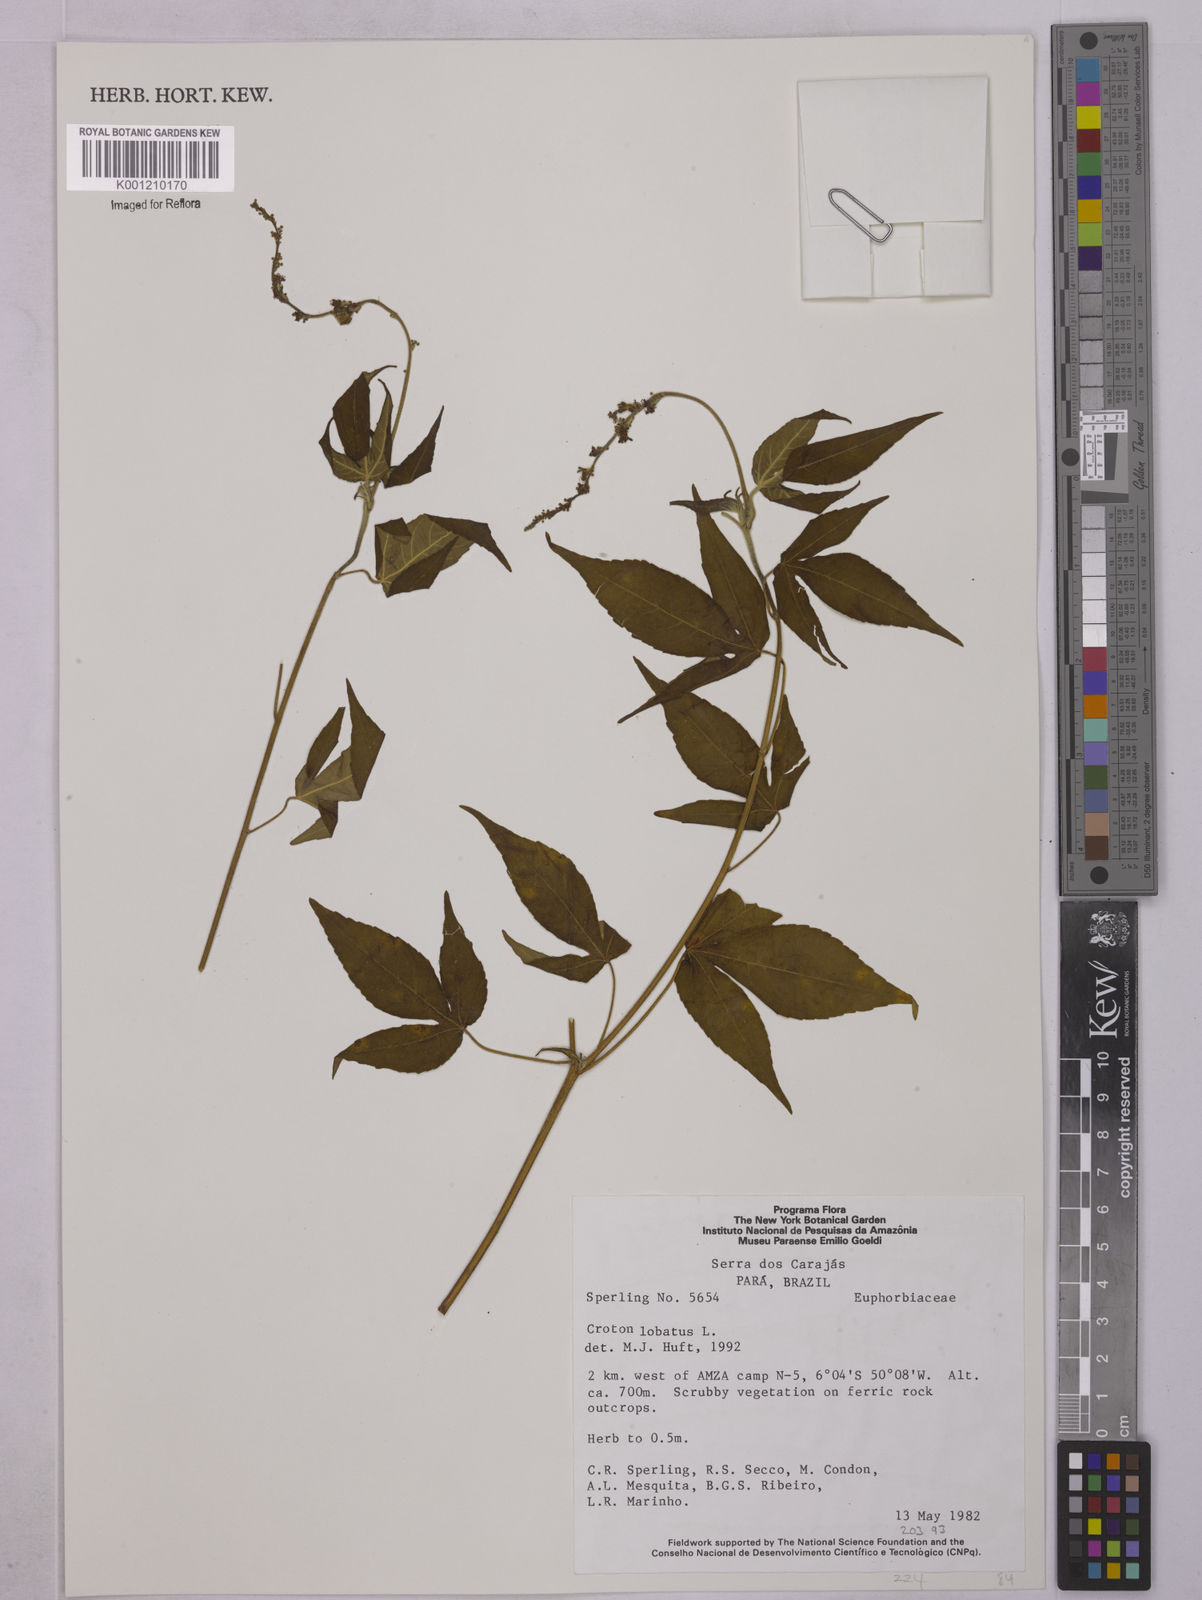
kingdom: Plantae
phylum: Tracheophyta
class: Magnoliopsida
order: Malpighiales
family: Euphorbiaceae
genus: Astraea
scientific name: Astraea lobata
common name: Lobed croton
